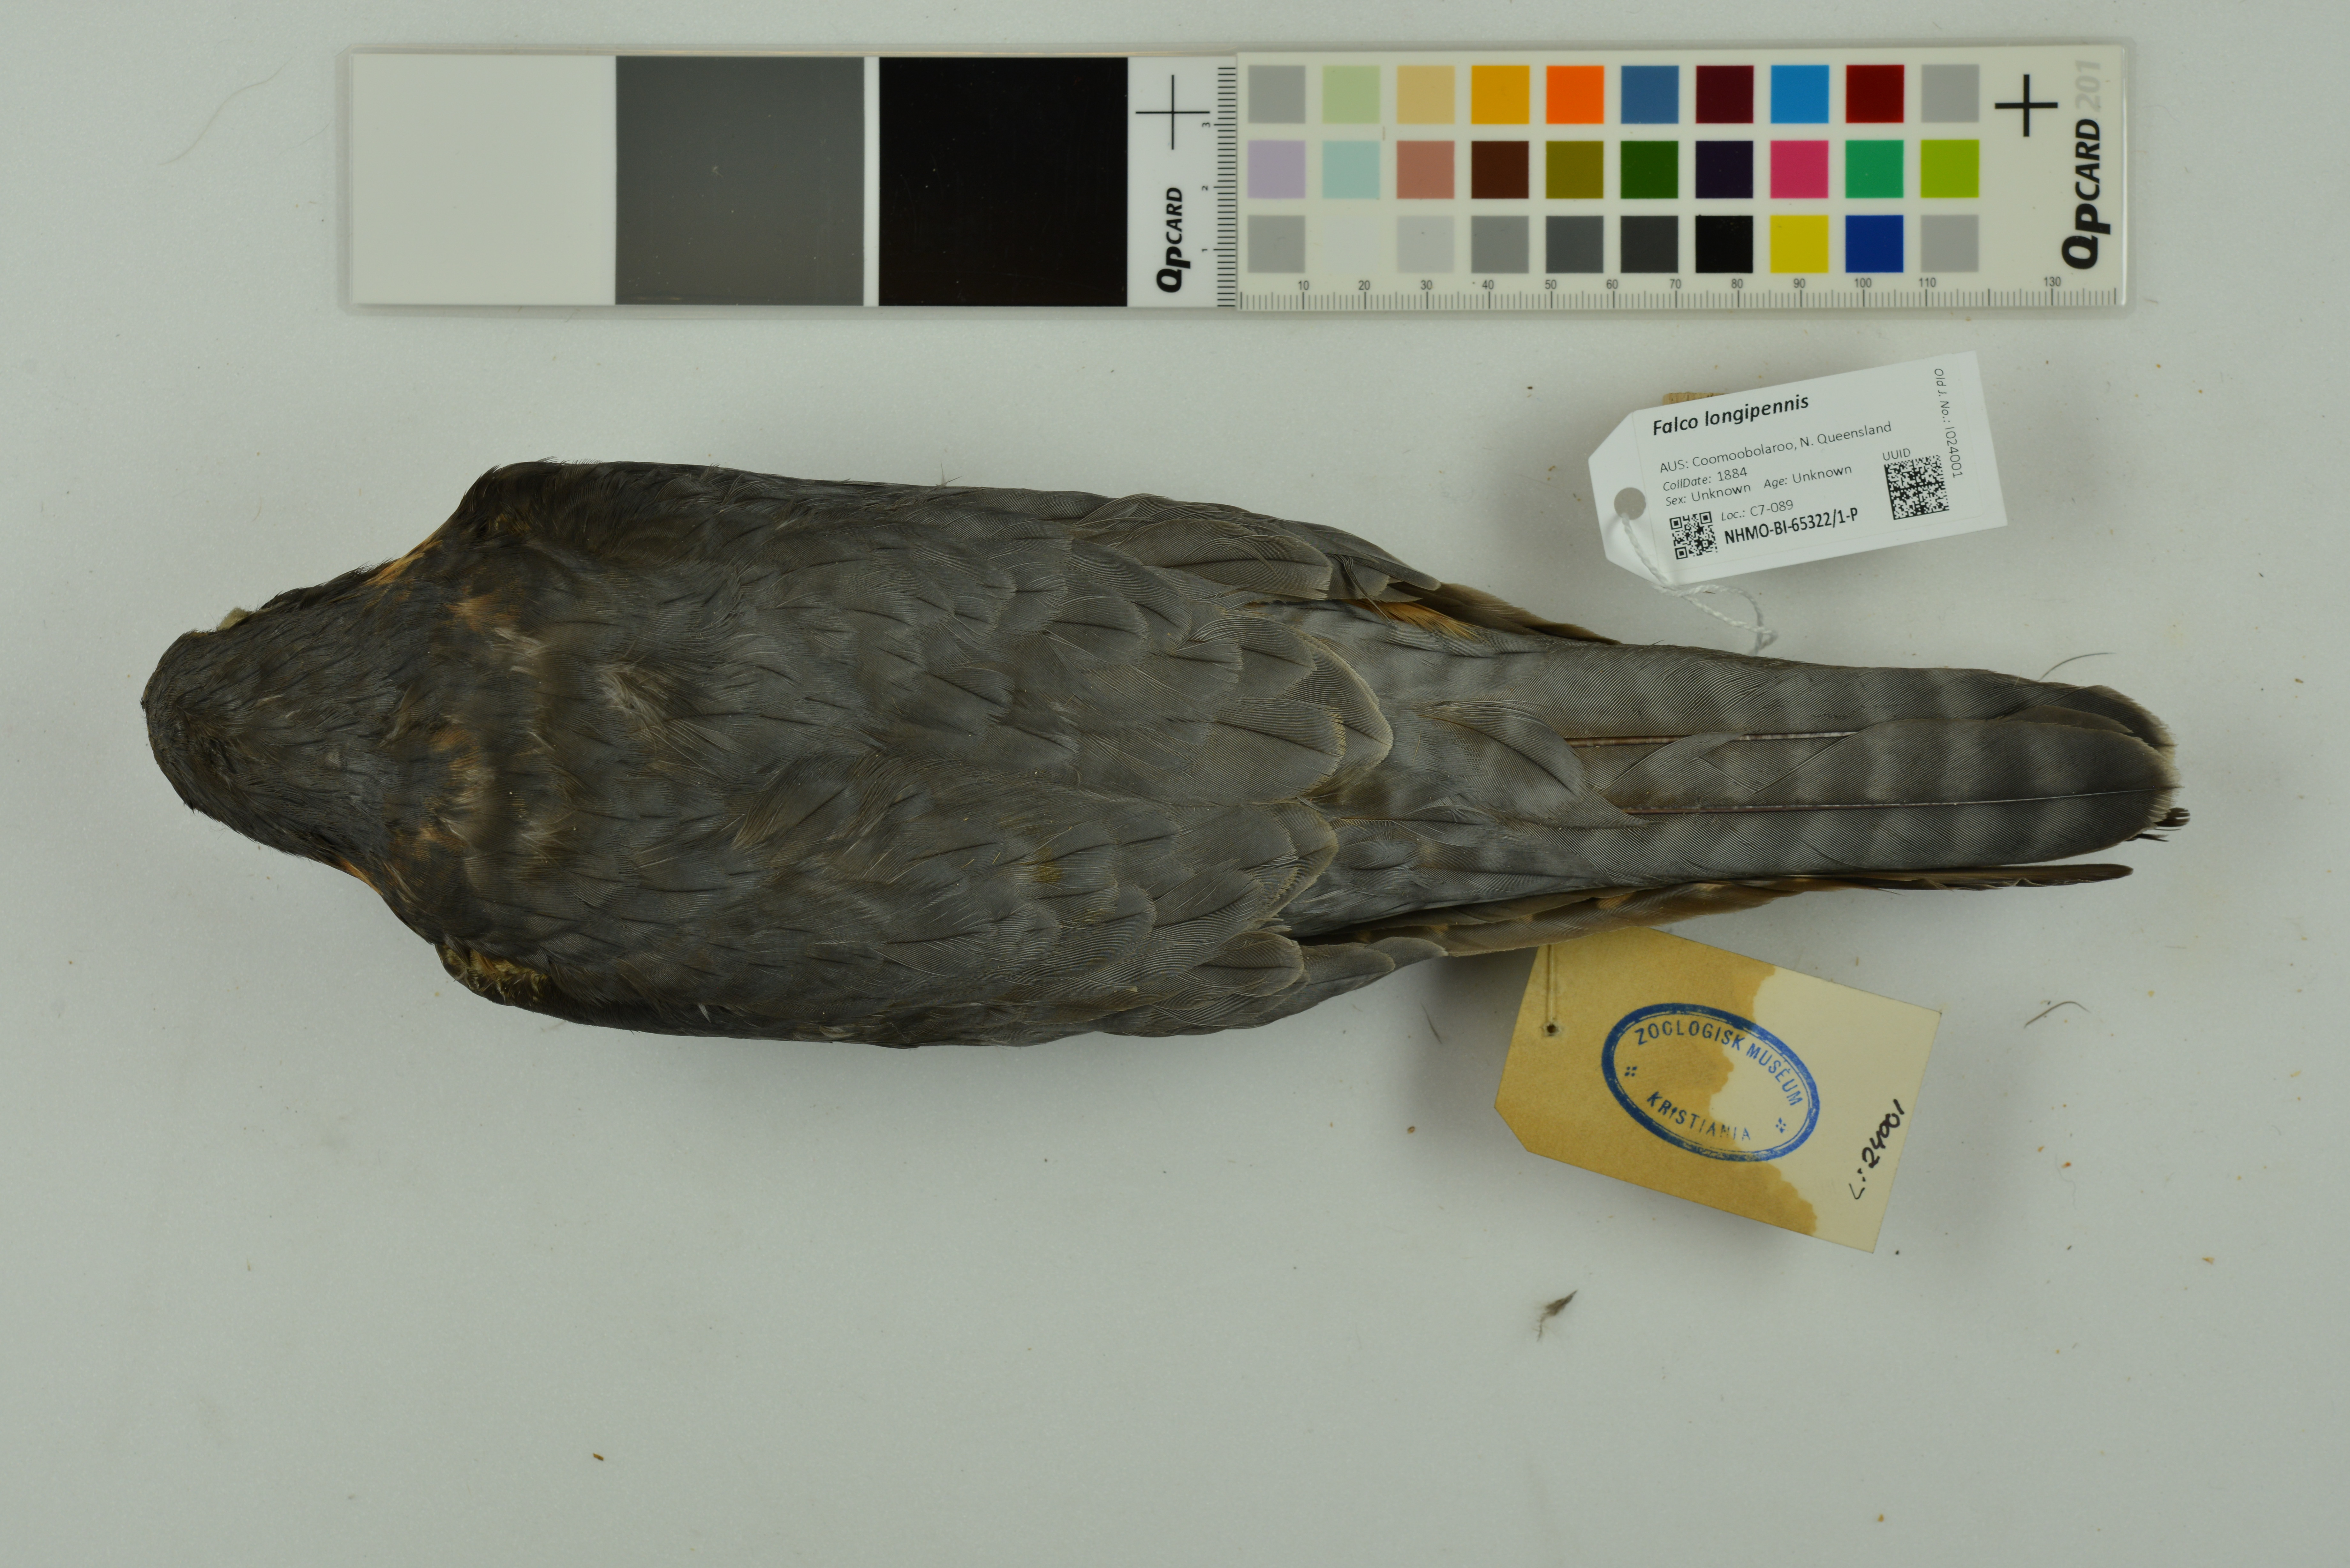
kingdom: Animalia
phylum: Chordata
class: Aves
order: Falconiformes
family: Falconidae
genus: Falco
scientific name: Falco longipennis
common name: Australian hobby
